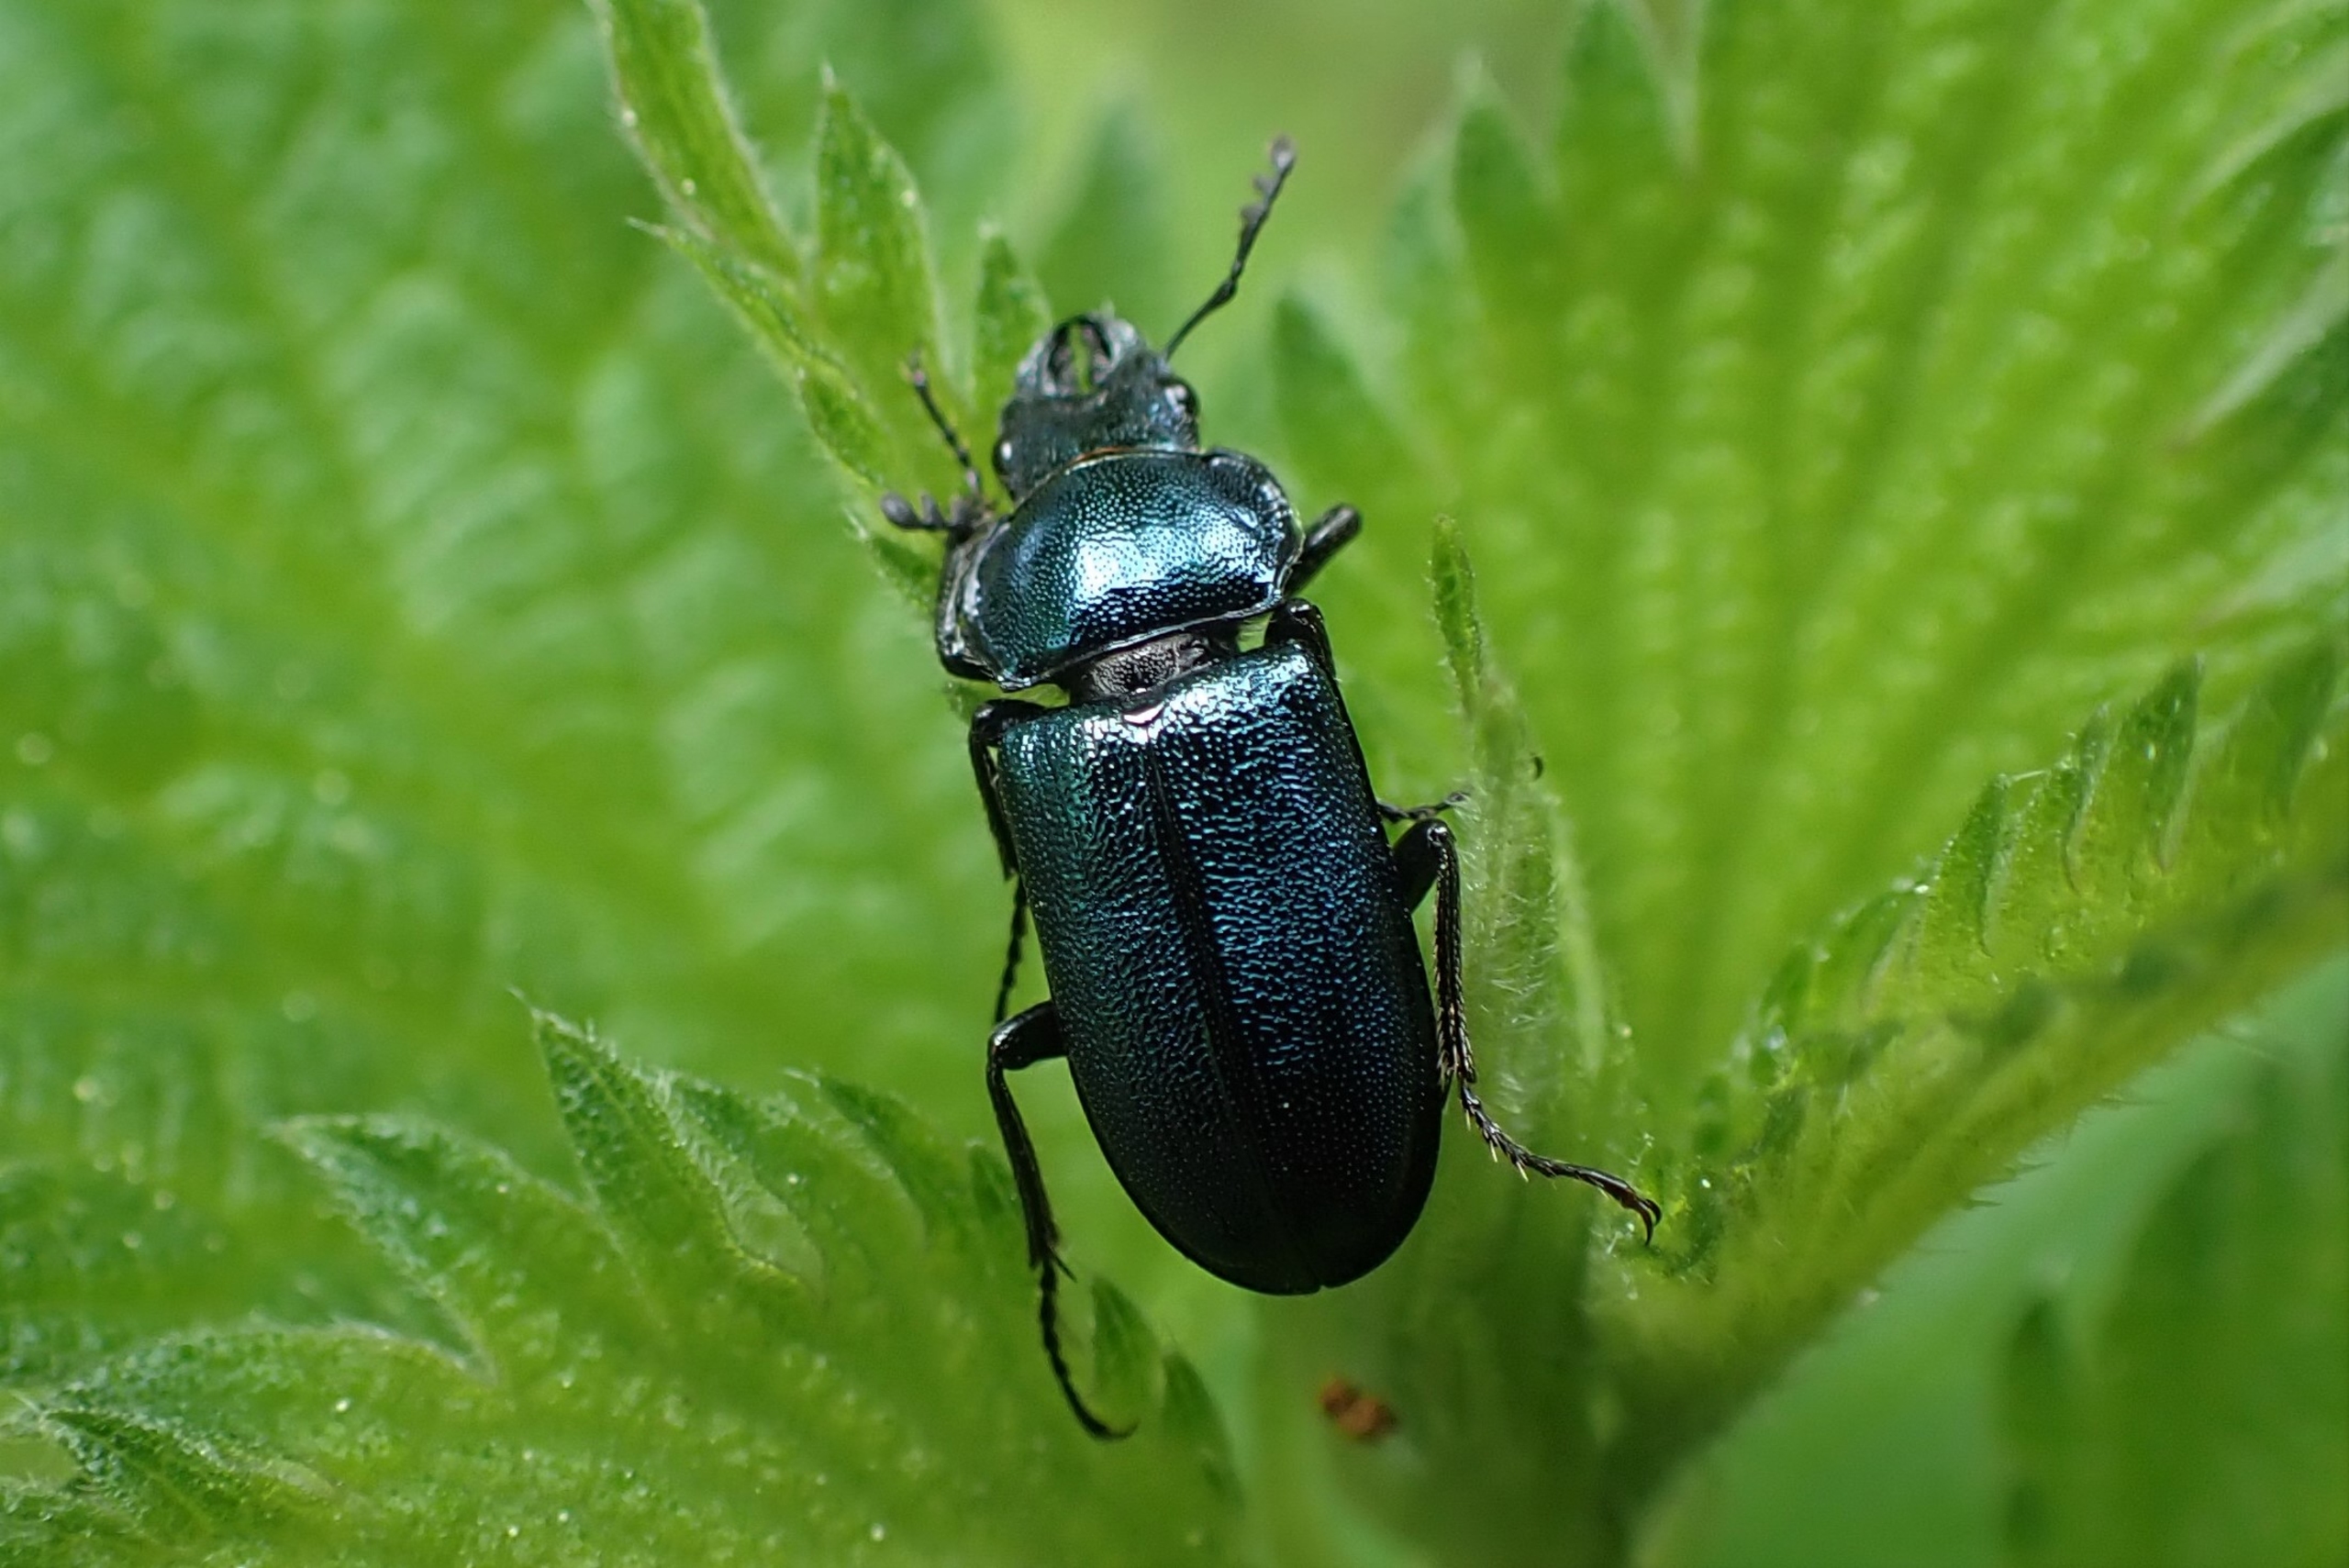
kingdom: Animalia
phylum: Arthropoda
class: Insecta
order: Coleoptera
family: Lucanidae
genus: Platycerus
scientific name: Platycerus caraboides
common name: Blåhjort
